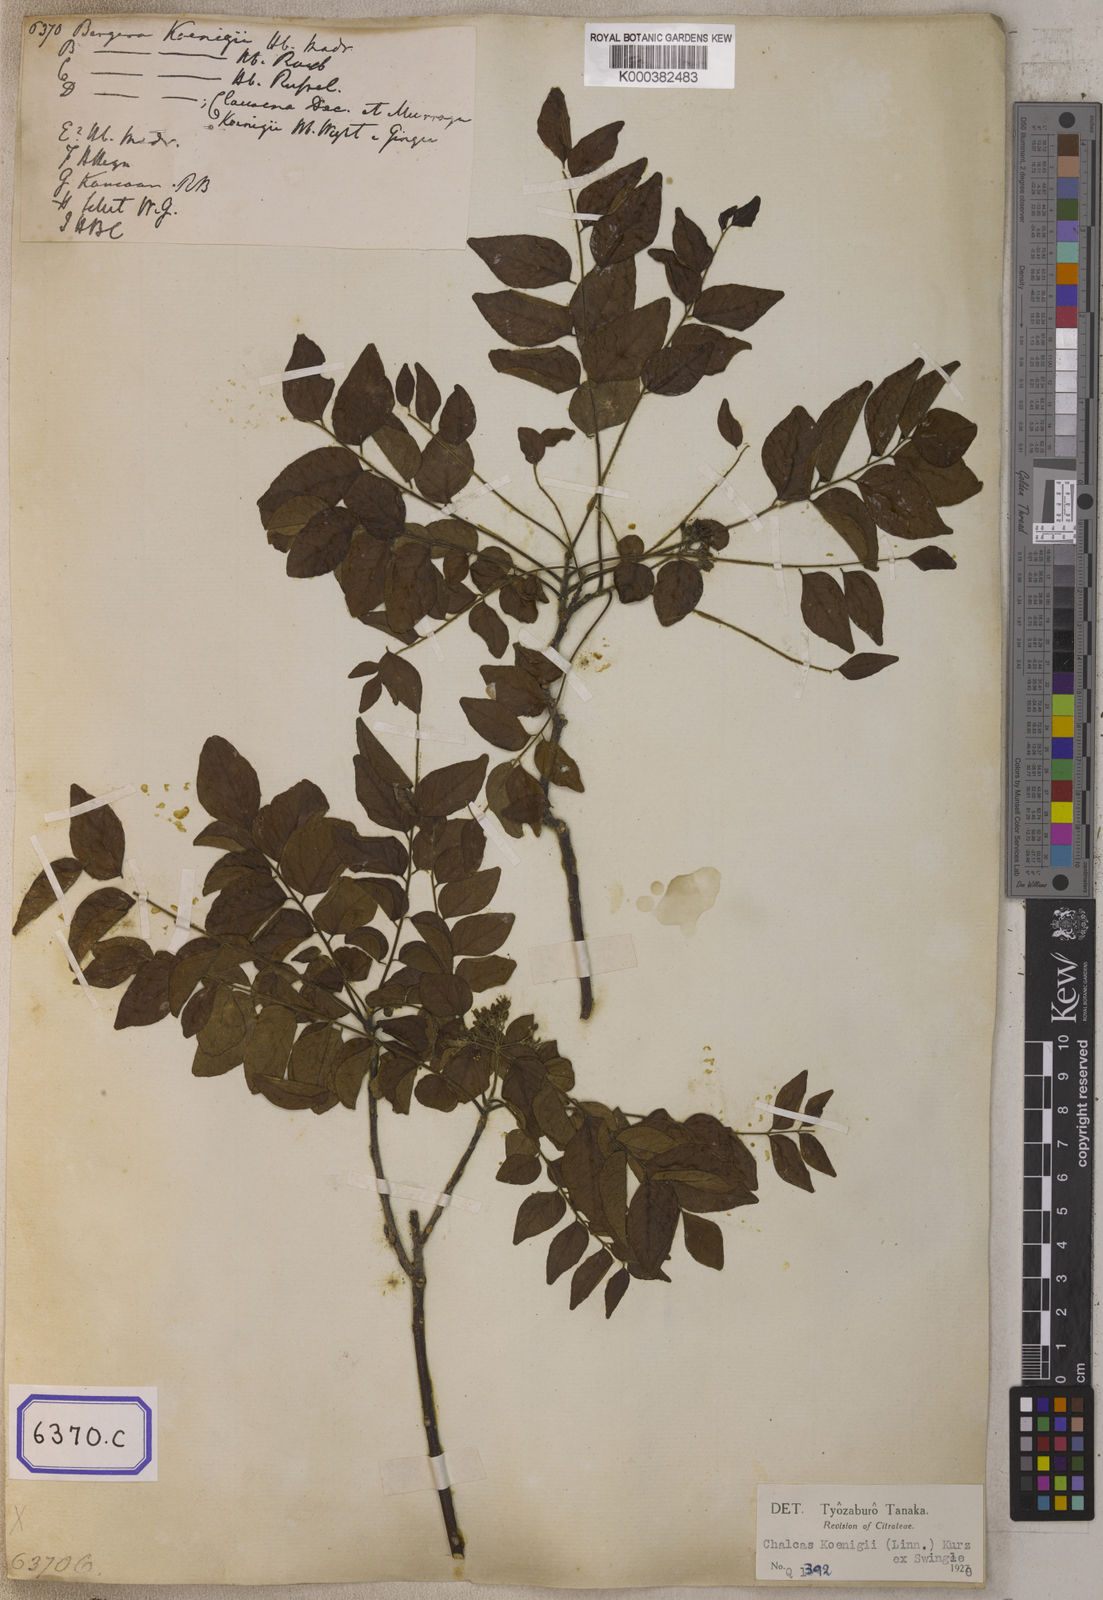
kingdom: Plantae
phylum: Tracheophyta
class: Magnoliopsida
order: Sapindales
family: Rutaceae
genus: Murraya
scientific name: Murraya koenigii
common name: Curry-plant
